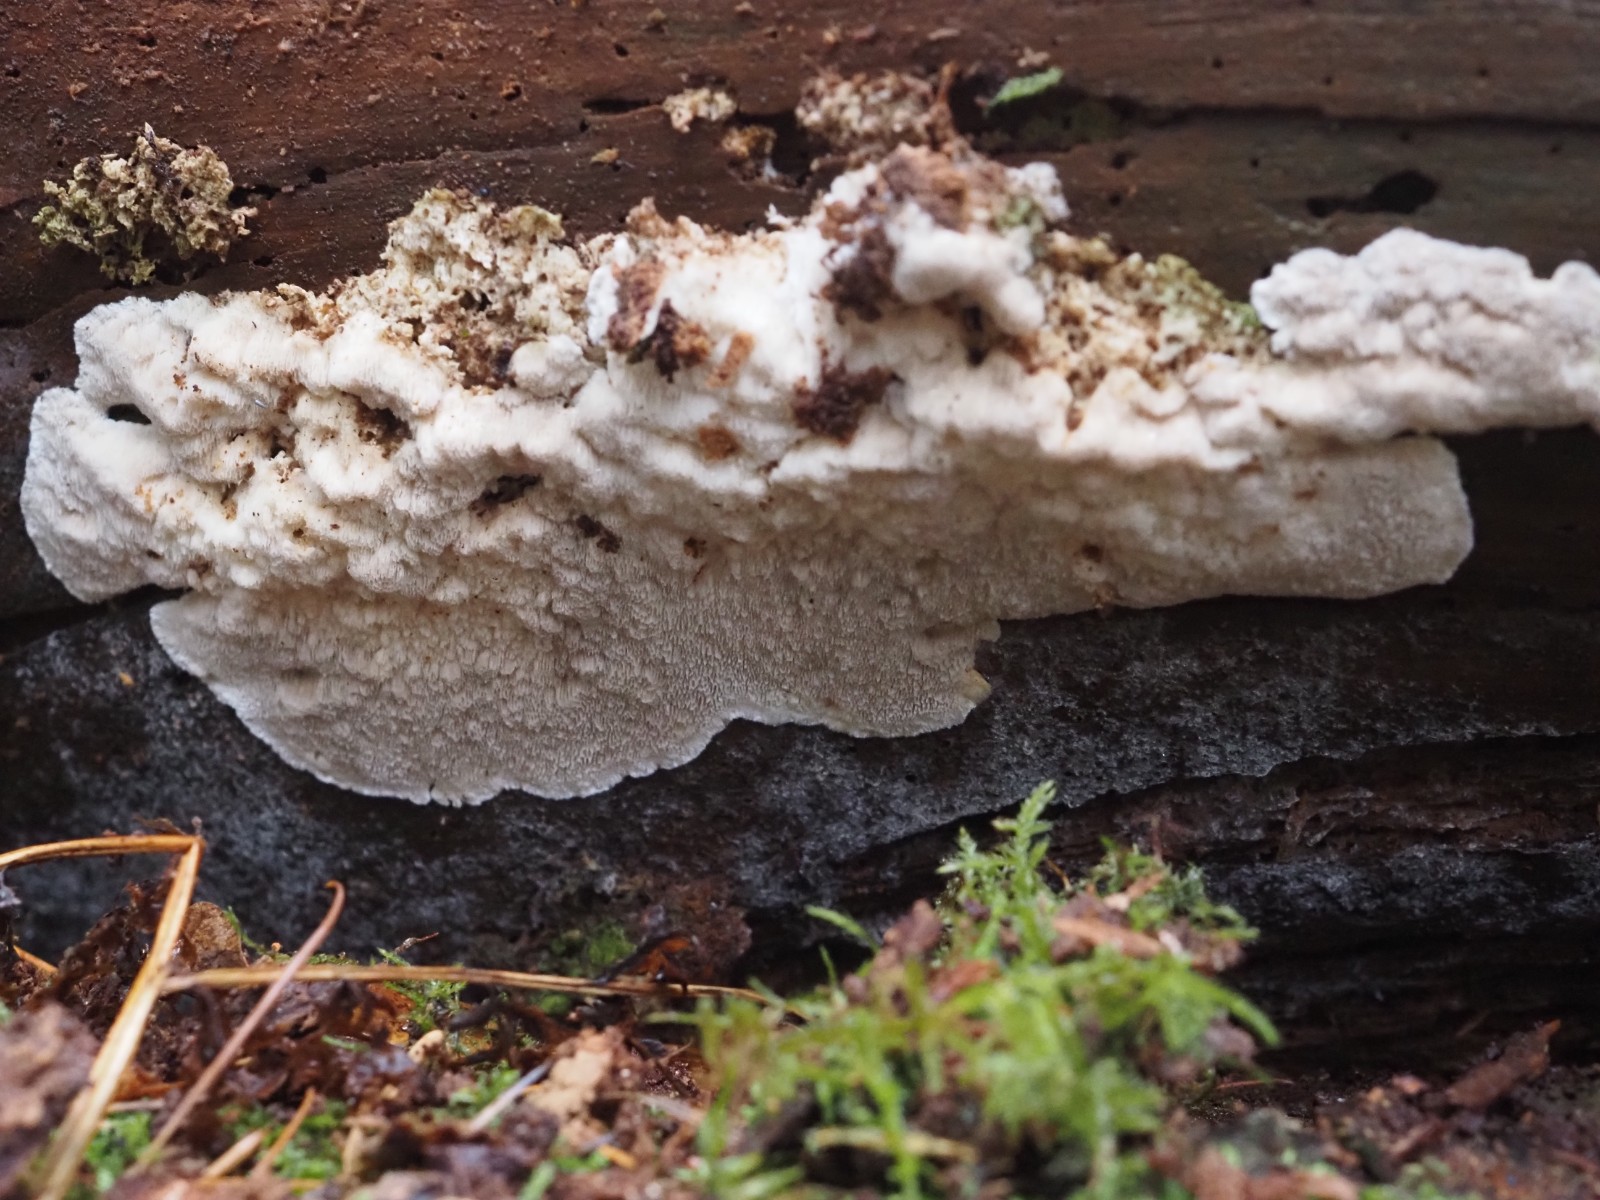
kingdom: Fungi
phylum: Basidiomycota
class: Agaricomycetes
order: Polyporales
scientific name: Polyporales
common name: poresvampordenen
